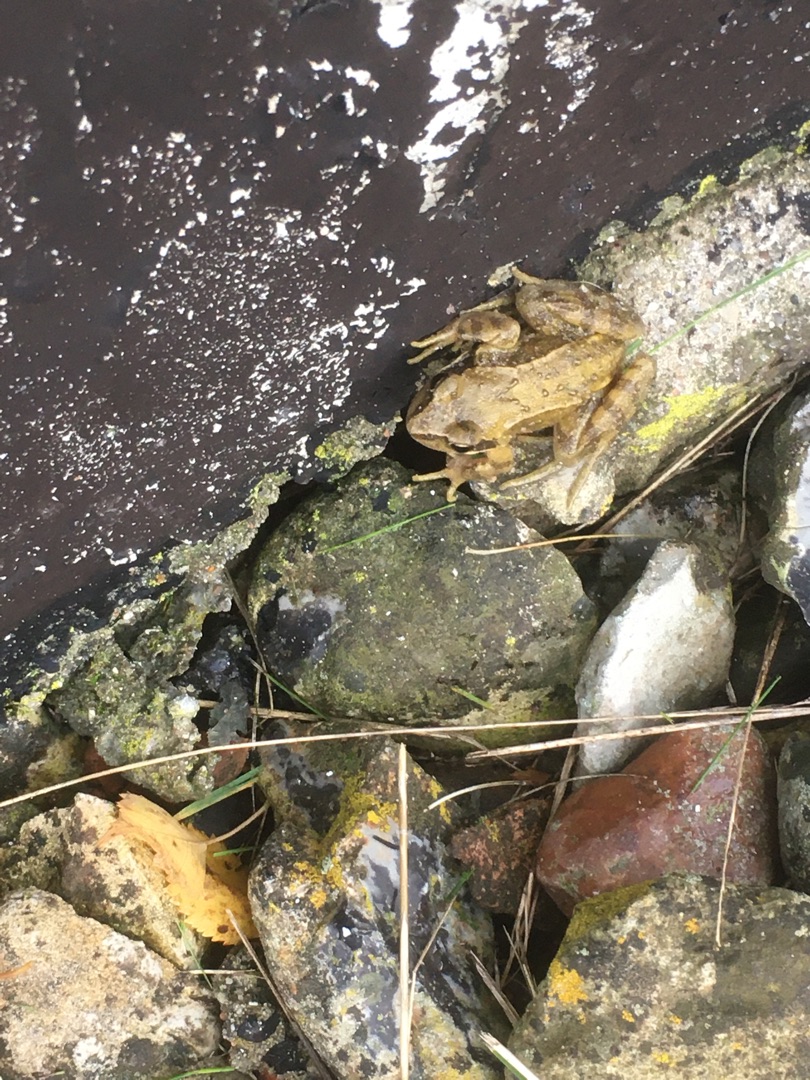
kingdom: Animalia
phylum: Chordata
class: Amphibia
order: Anura
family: Ranidae
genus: Rana
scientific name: Rana temporaria
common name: Butsnudet frø
